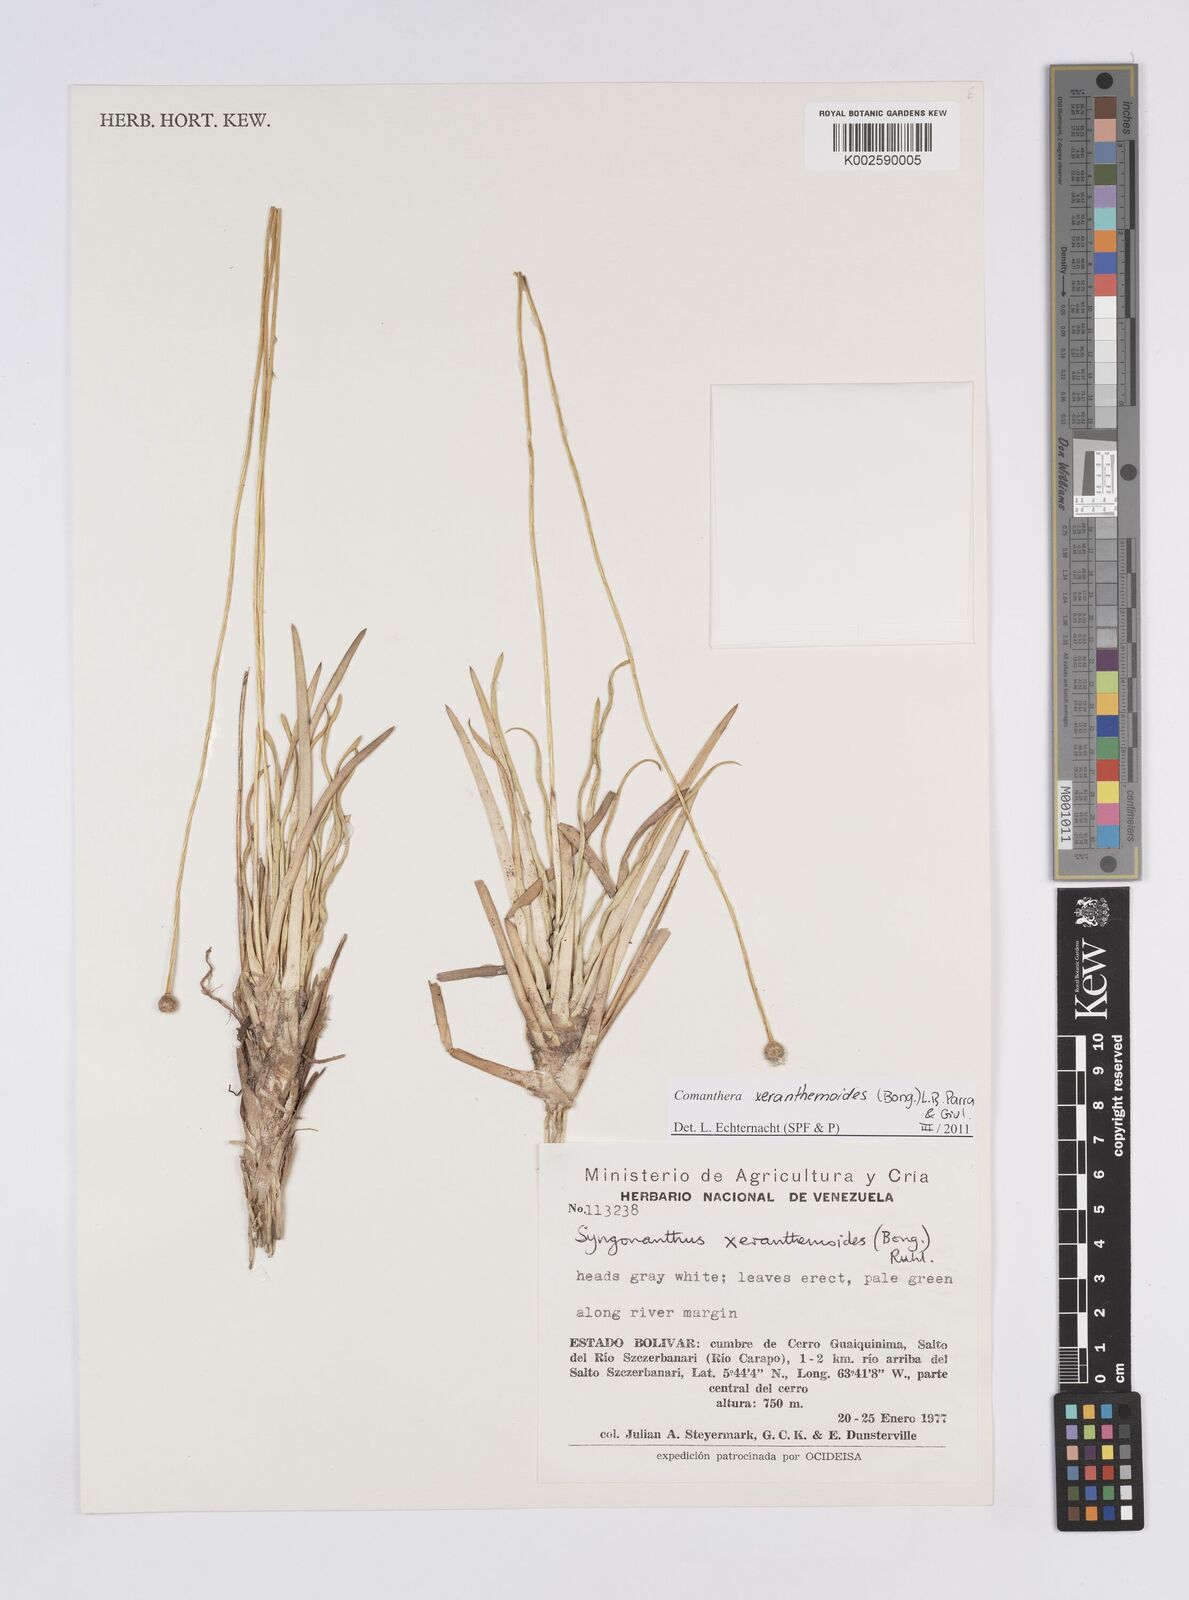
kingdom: Plantae
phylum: Tracheophyta
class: Liliopsida
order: Poales
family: Eriocaulaceae
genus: Comanthera
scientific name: Comanthera xeranthemoides
